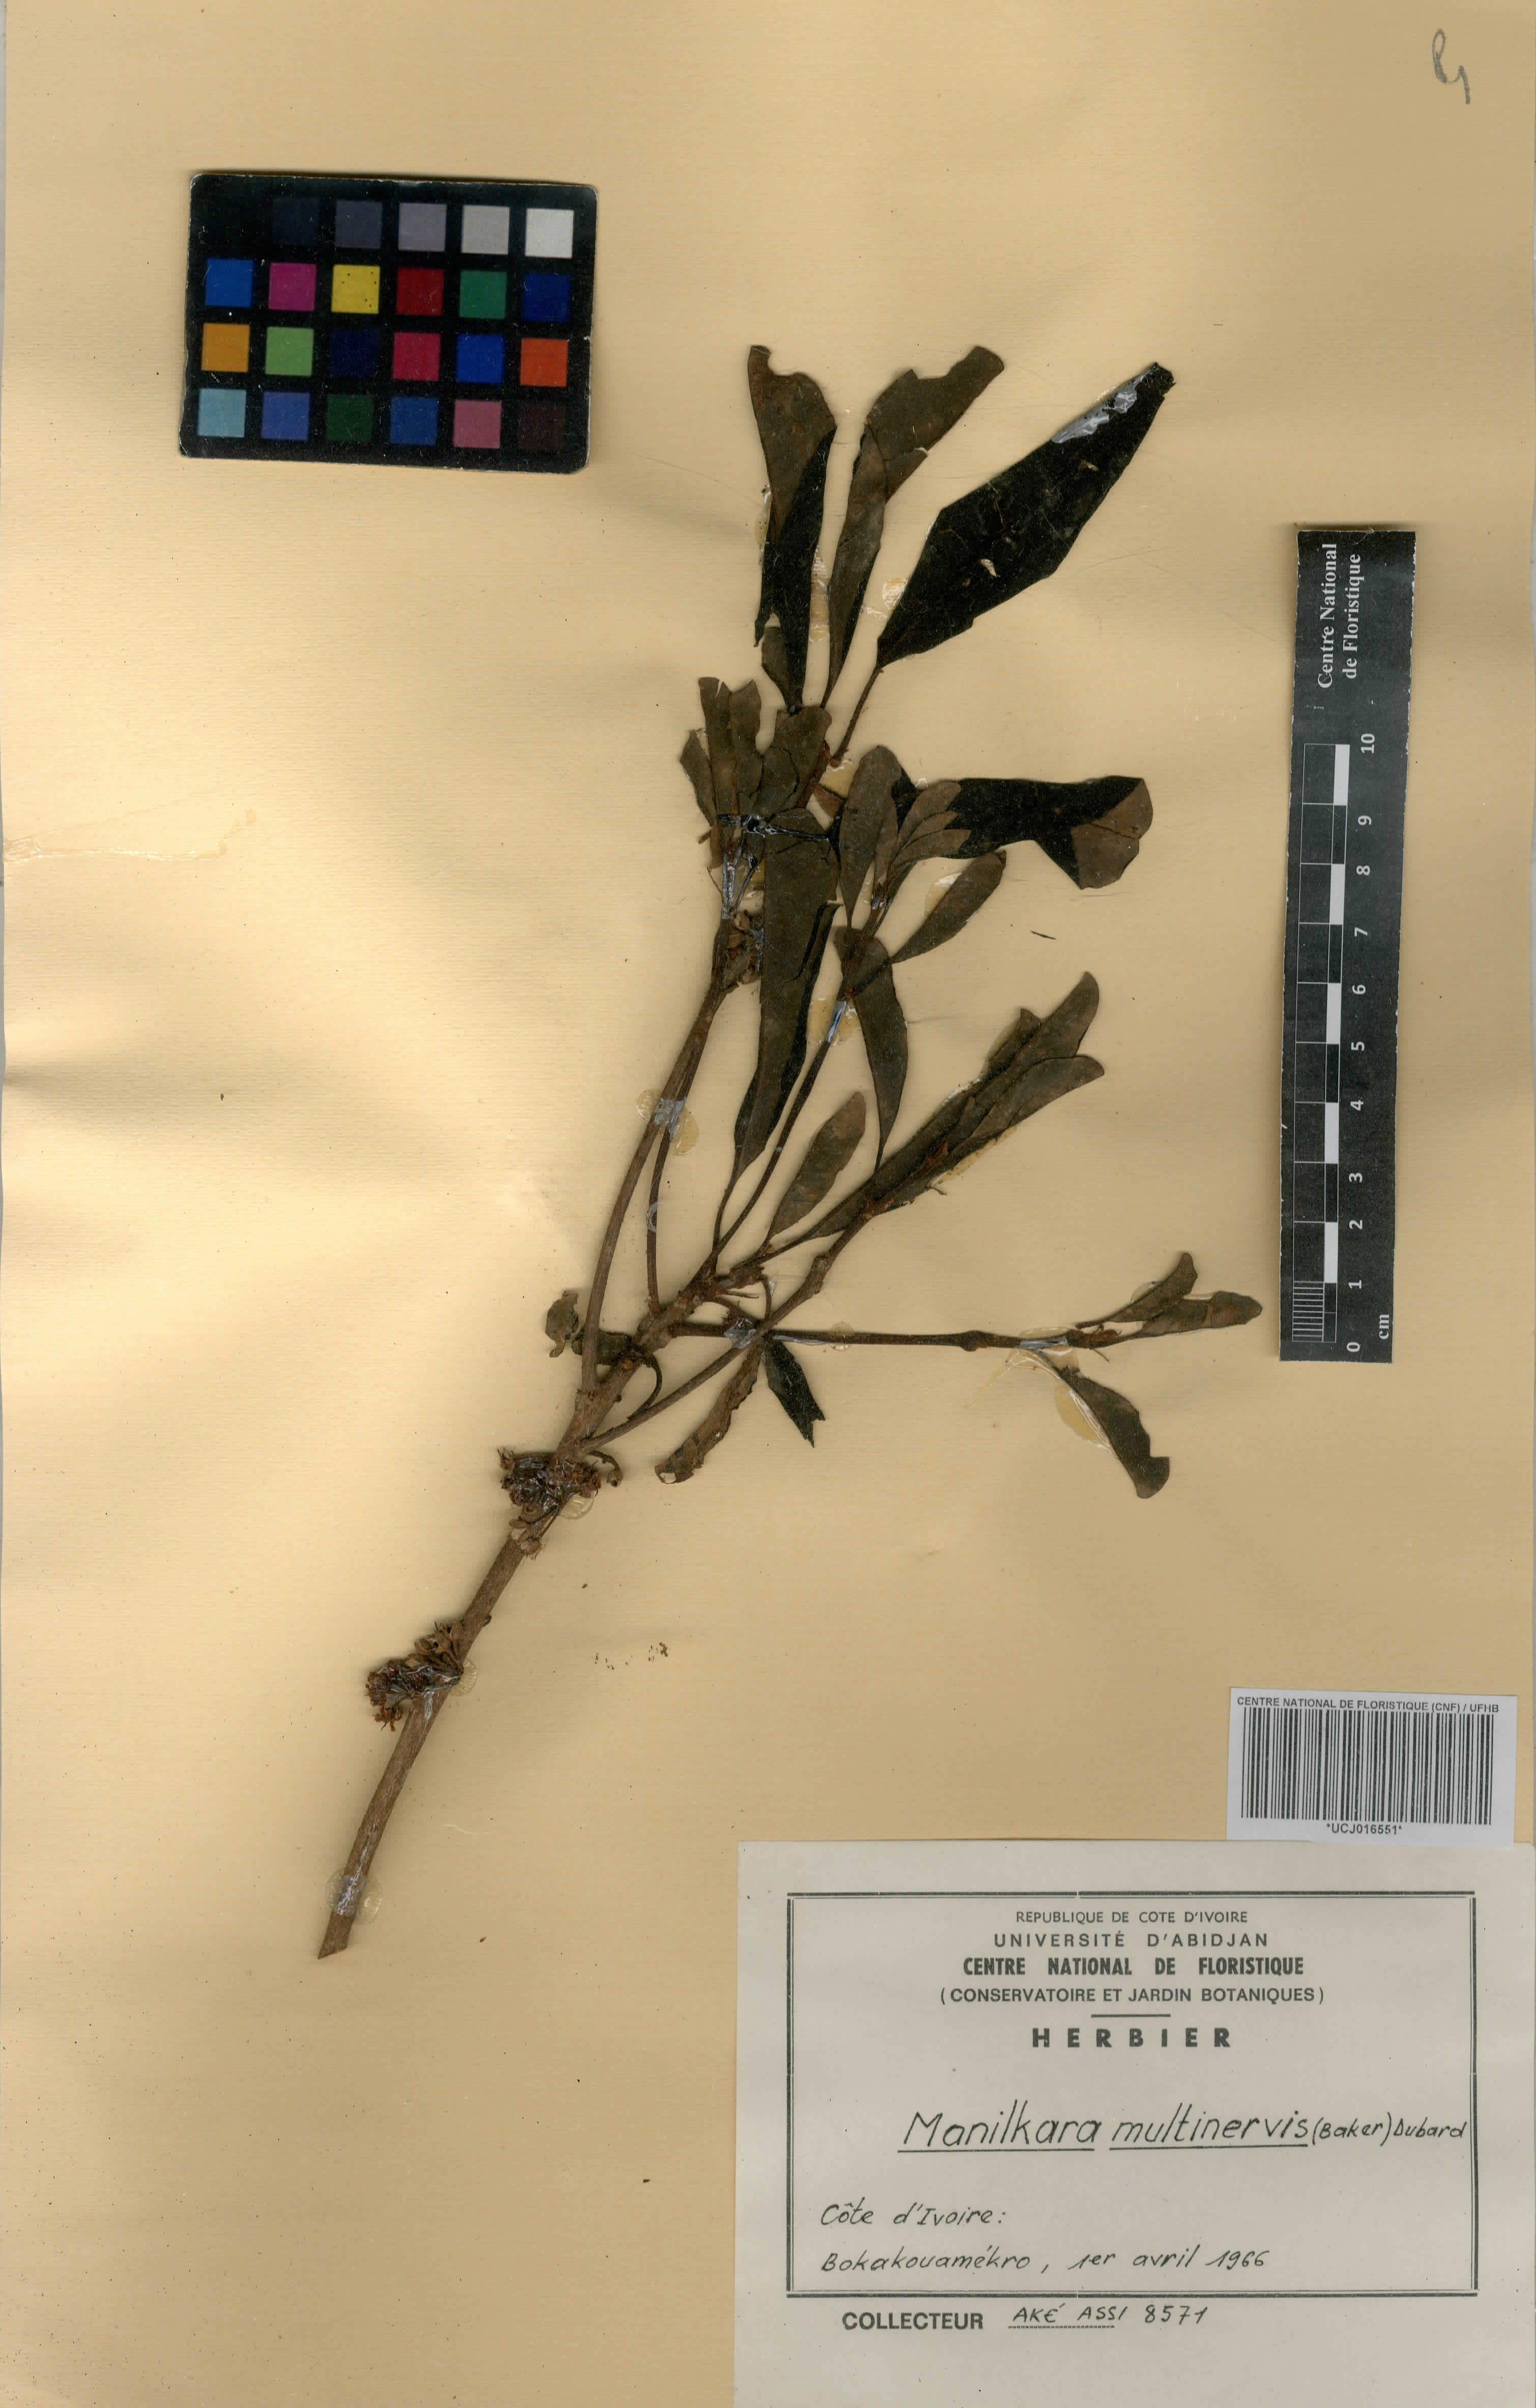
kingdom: Plantae
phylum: Tracheophyta
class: Magnoliopsida
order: Ericales
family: Sapotaceae
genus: Manilkara
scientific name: Manilkara obovata
